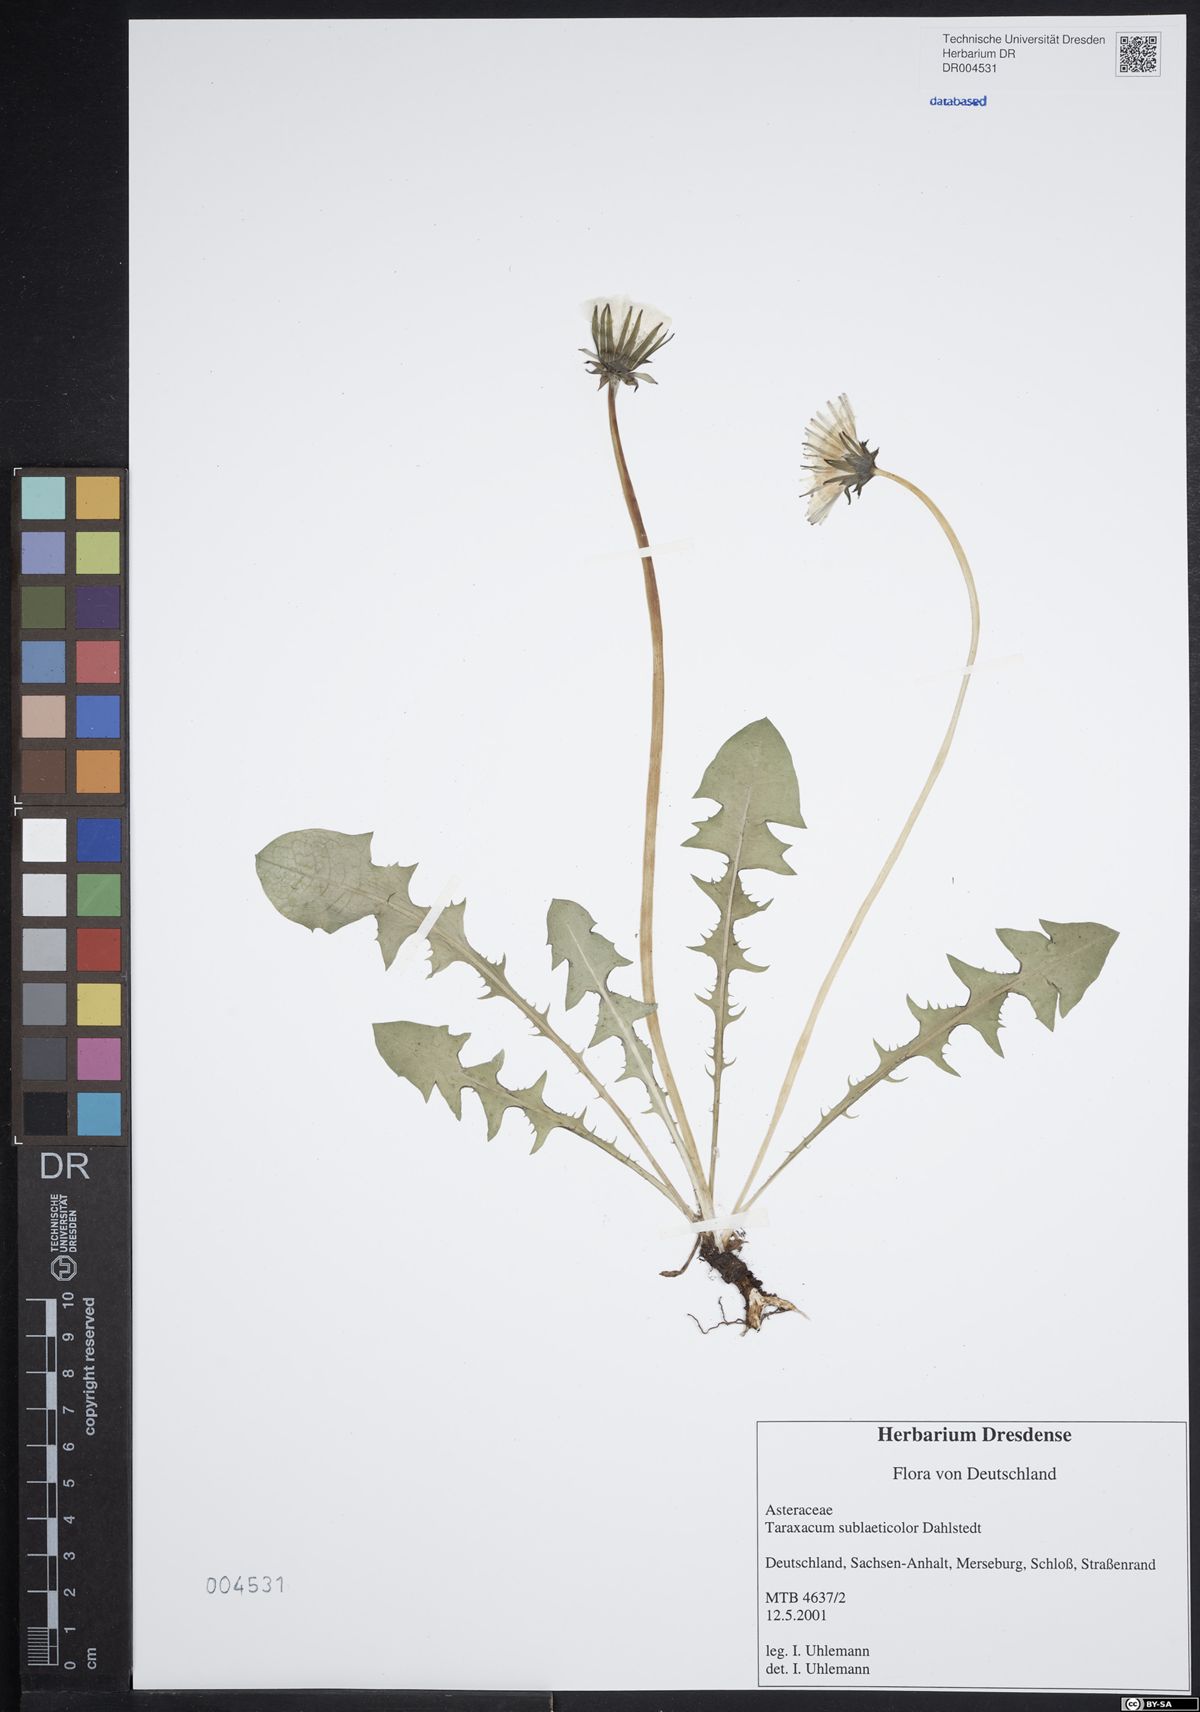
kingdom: Plantae
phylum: Tracheophyta
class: Magnoliopsida
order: Asterales
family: Asteraceae
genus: Taraxacum
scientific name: Taraxacum sublaeticolor
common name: Small-headed dandelion
